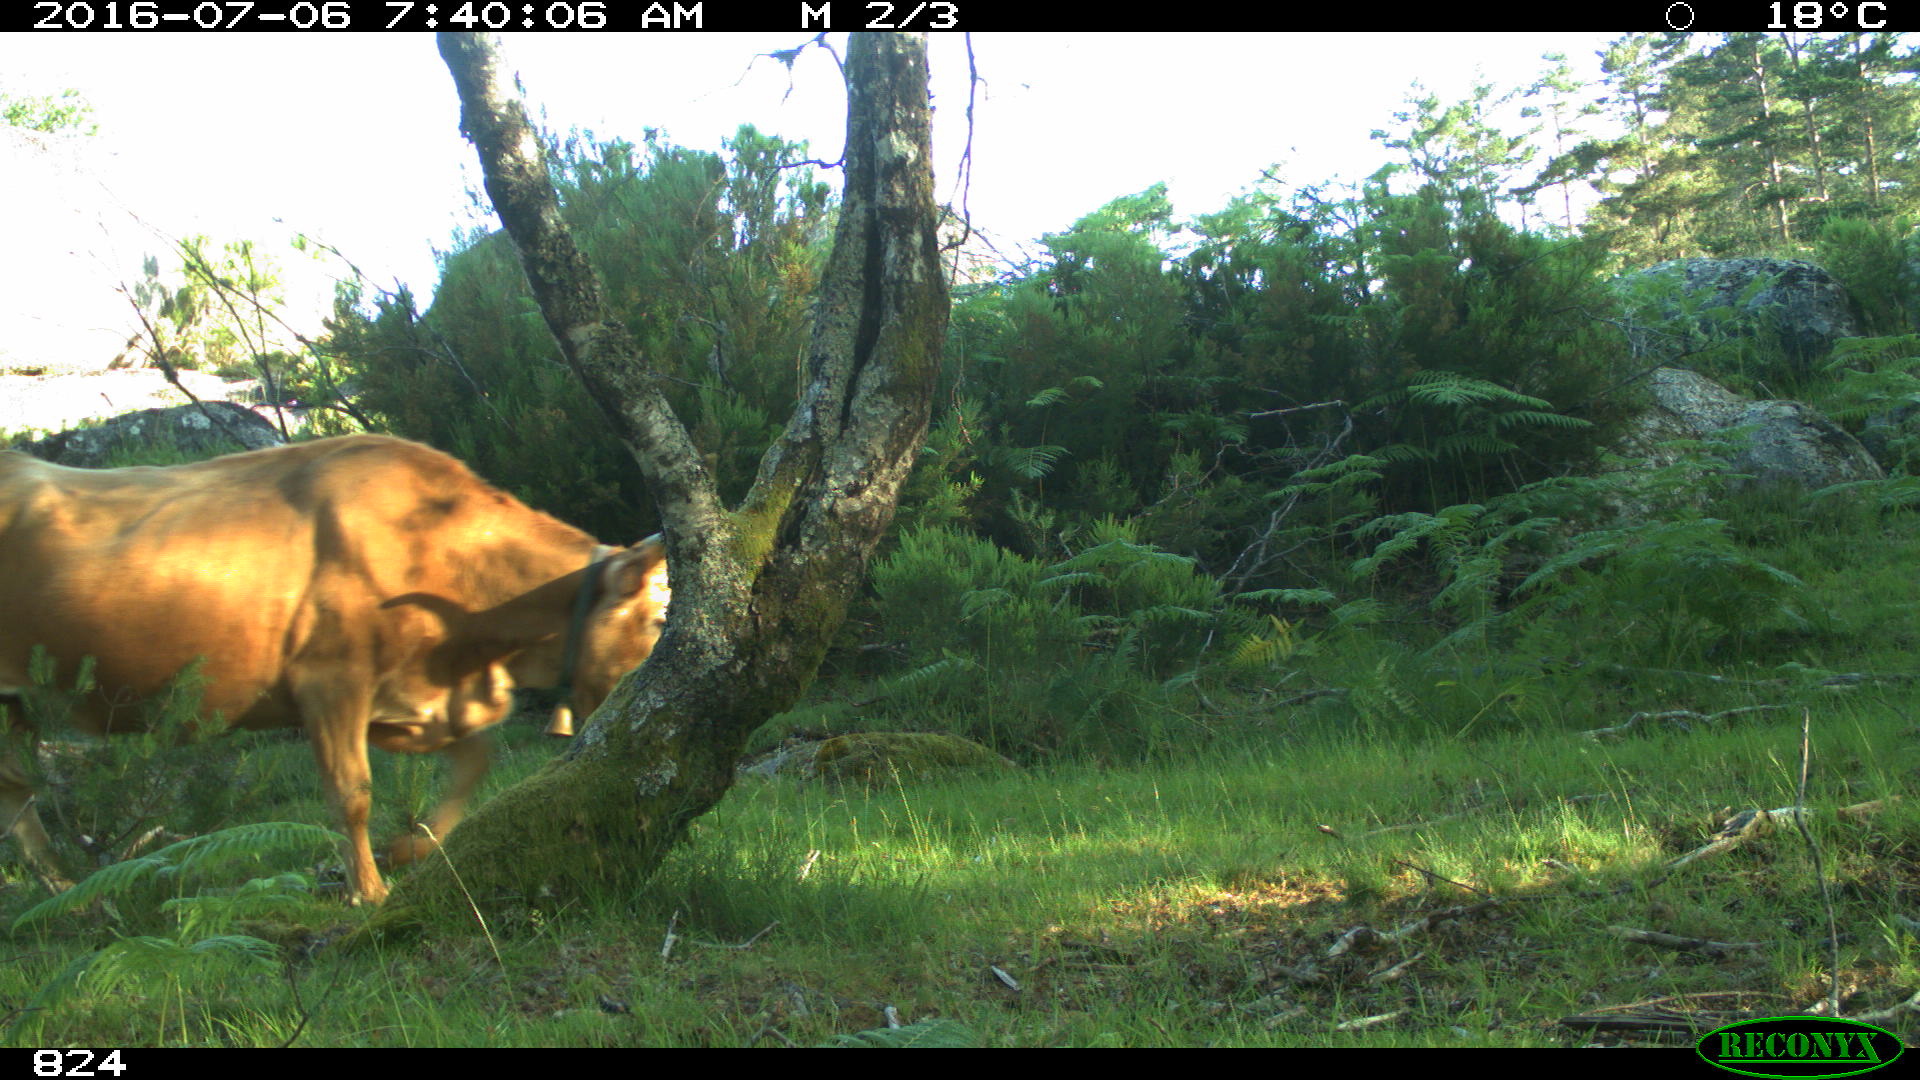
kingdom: Animalia
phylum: Chordata
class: Mammalia
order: Artiodactyla
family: Bovidae
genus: Bos
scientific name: Bos taurus
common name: Domesticated cattle
